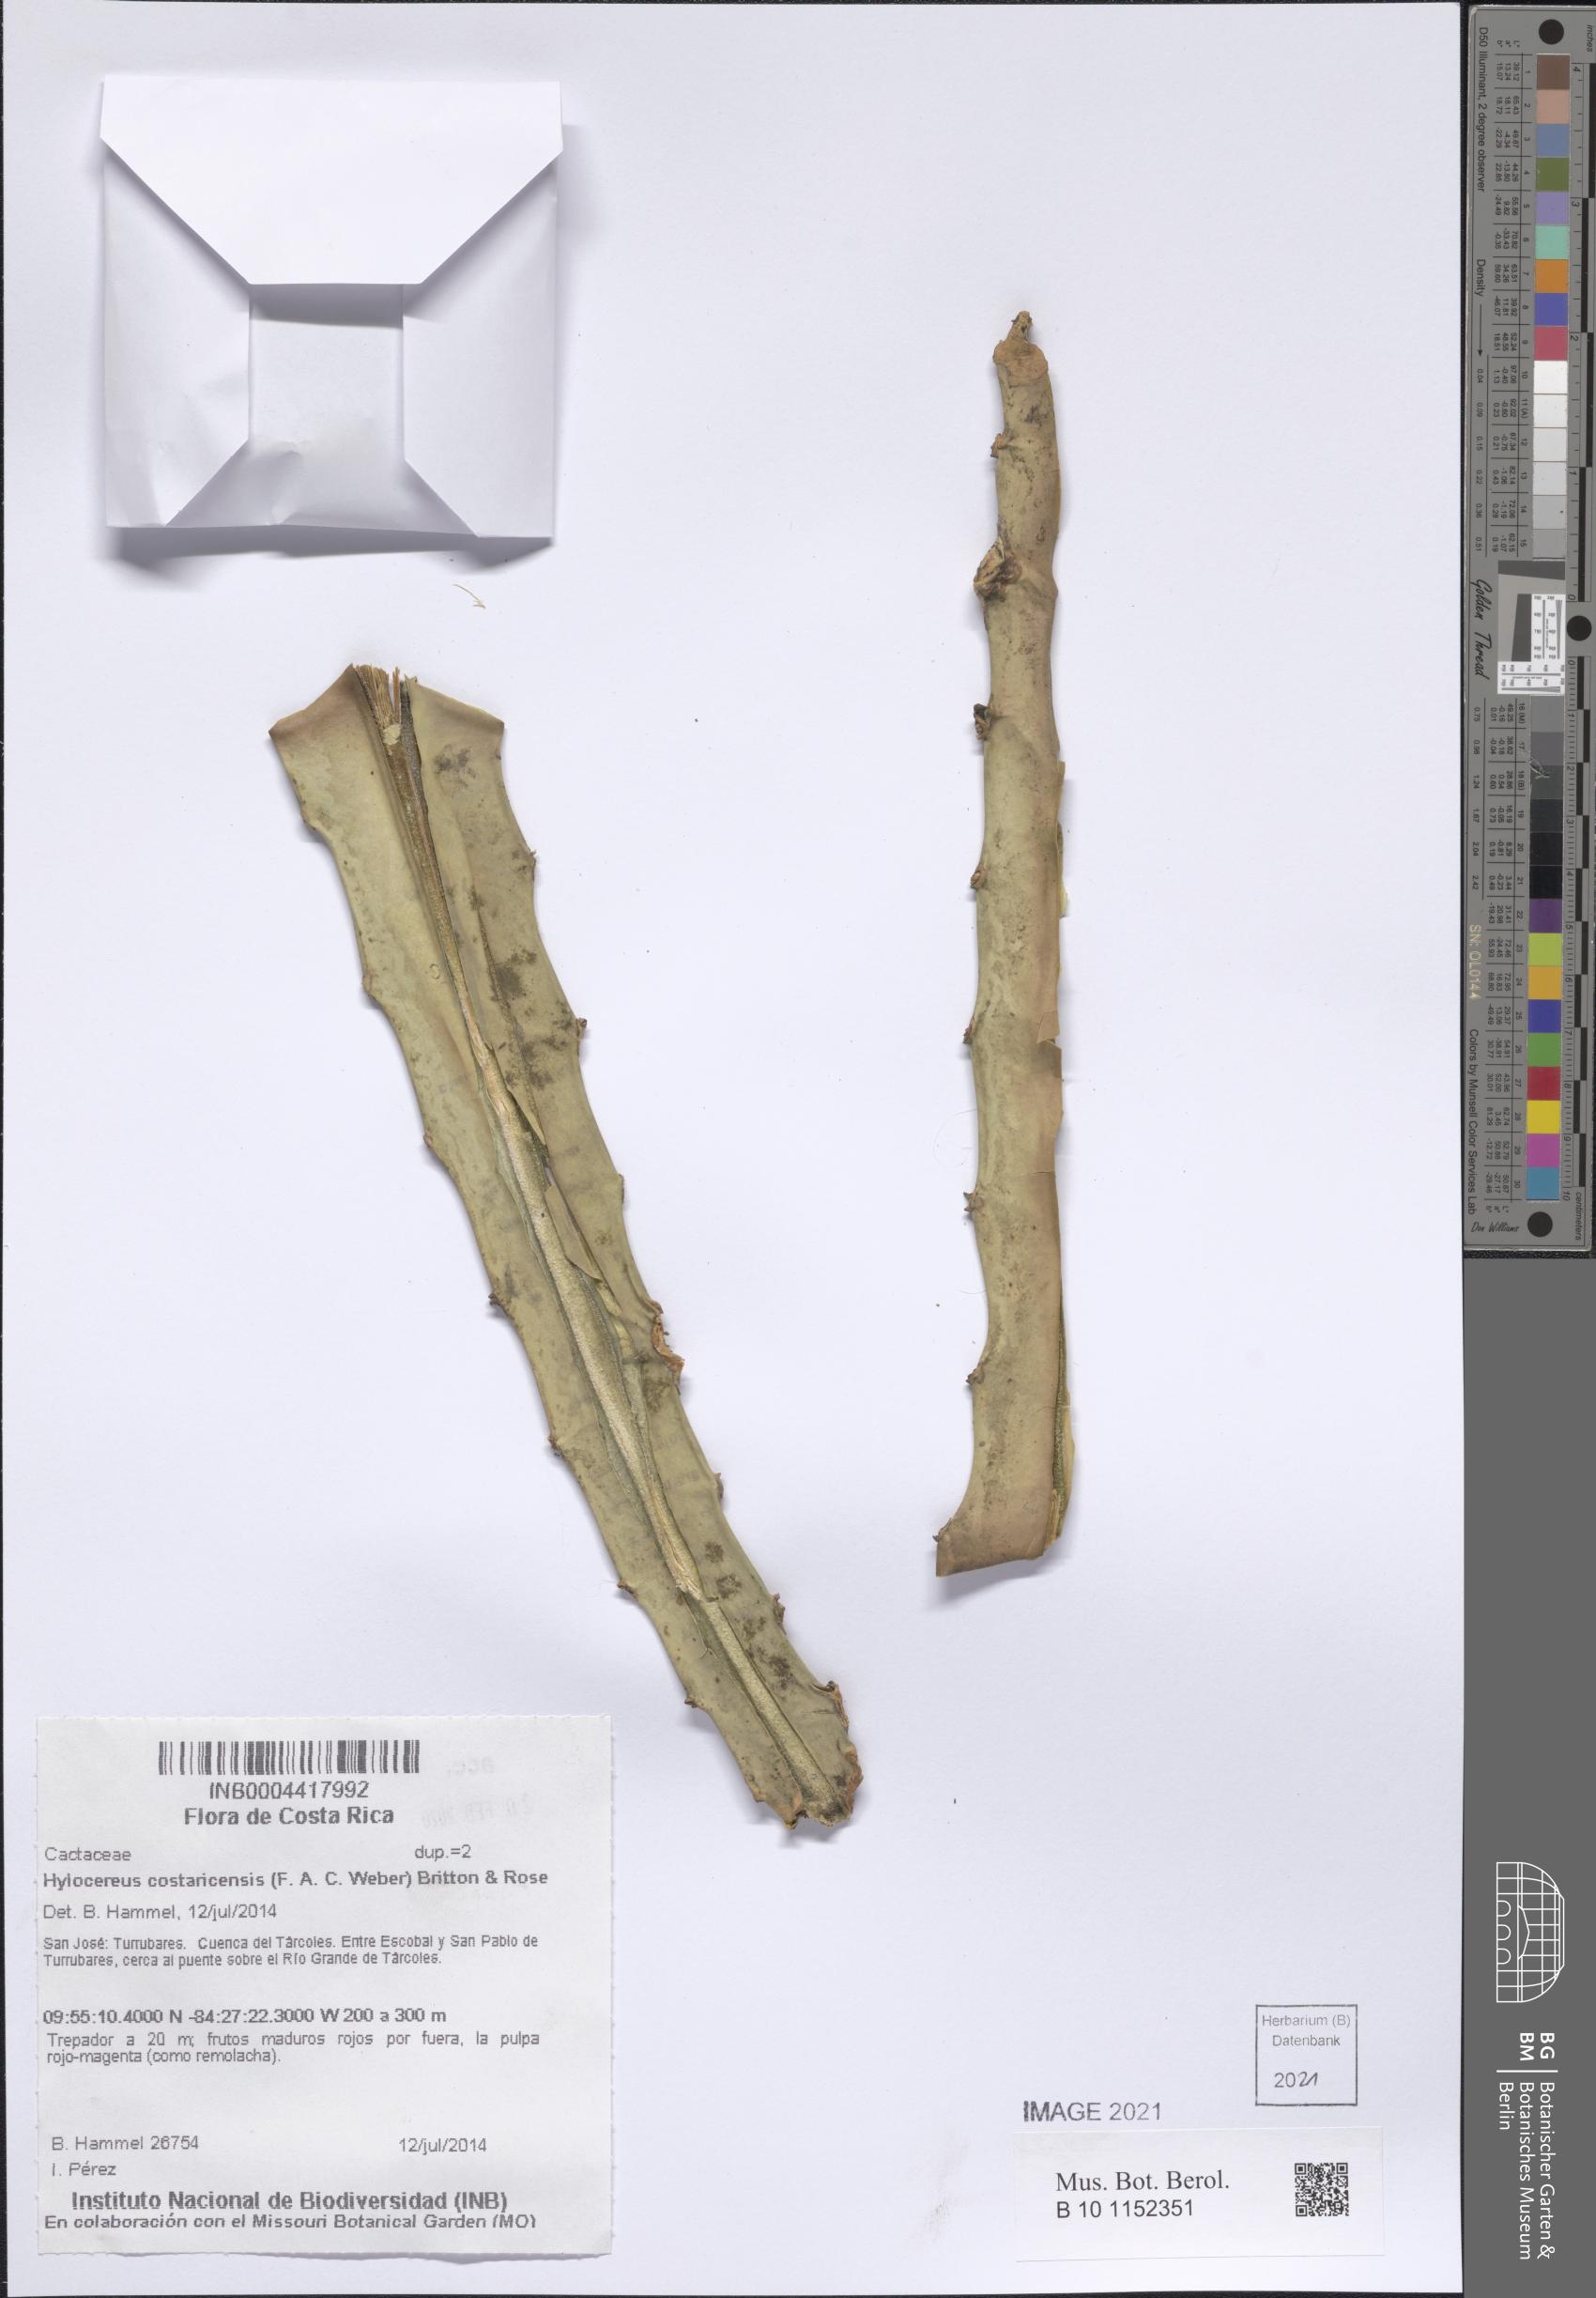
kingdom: Plantae
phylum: Tracheophyta
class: Magnoliopsida
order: Caryophyllales
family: Cactaceae
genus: Selenicereus
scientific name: Selenicereus costaricensis
